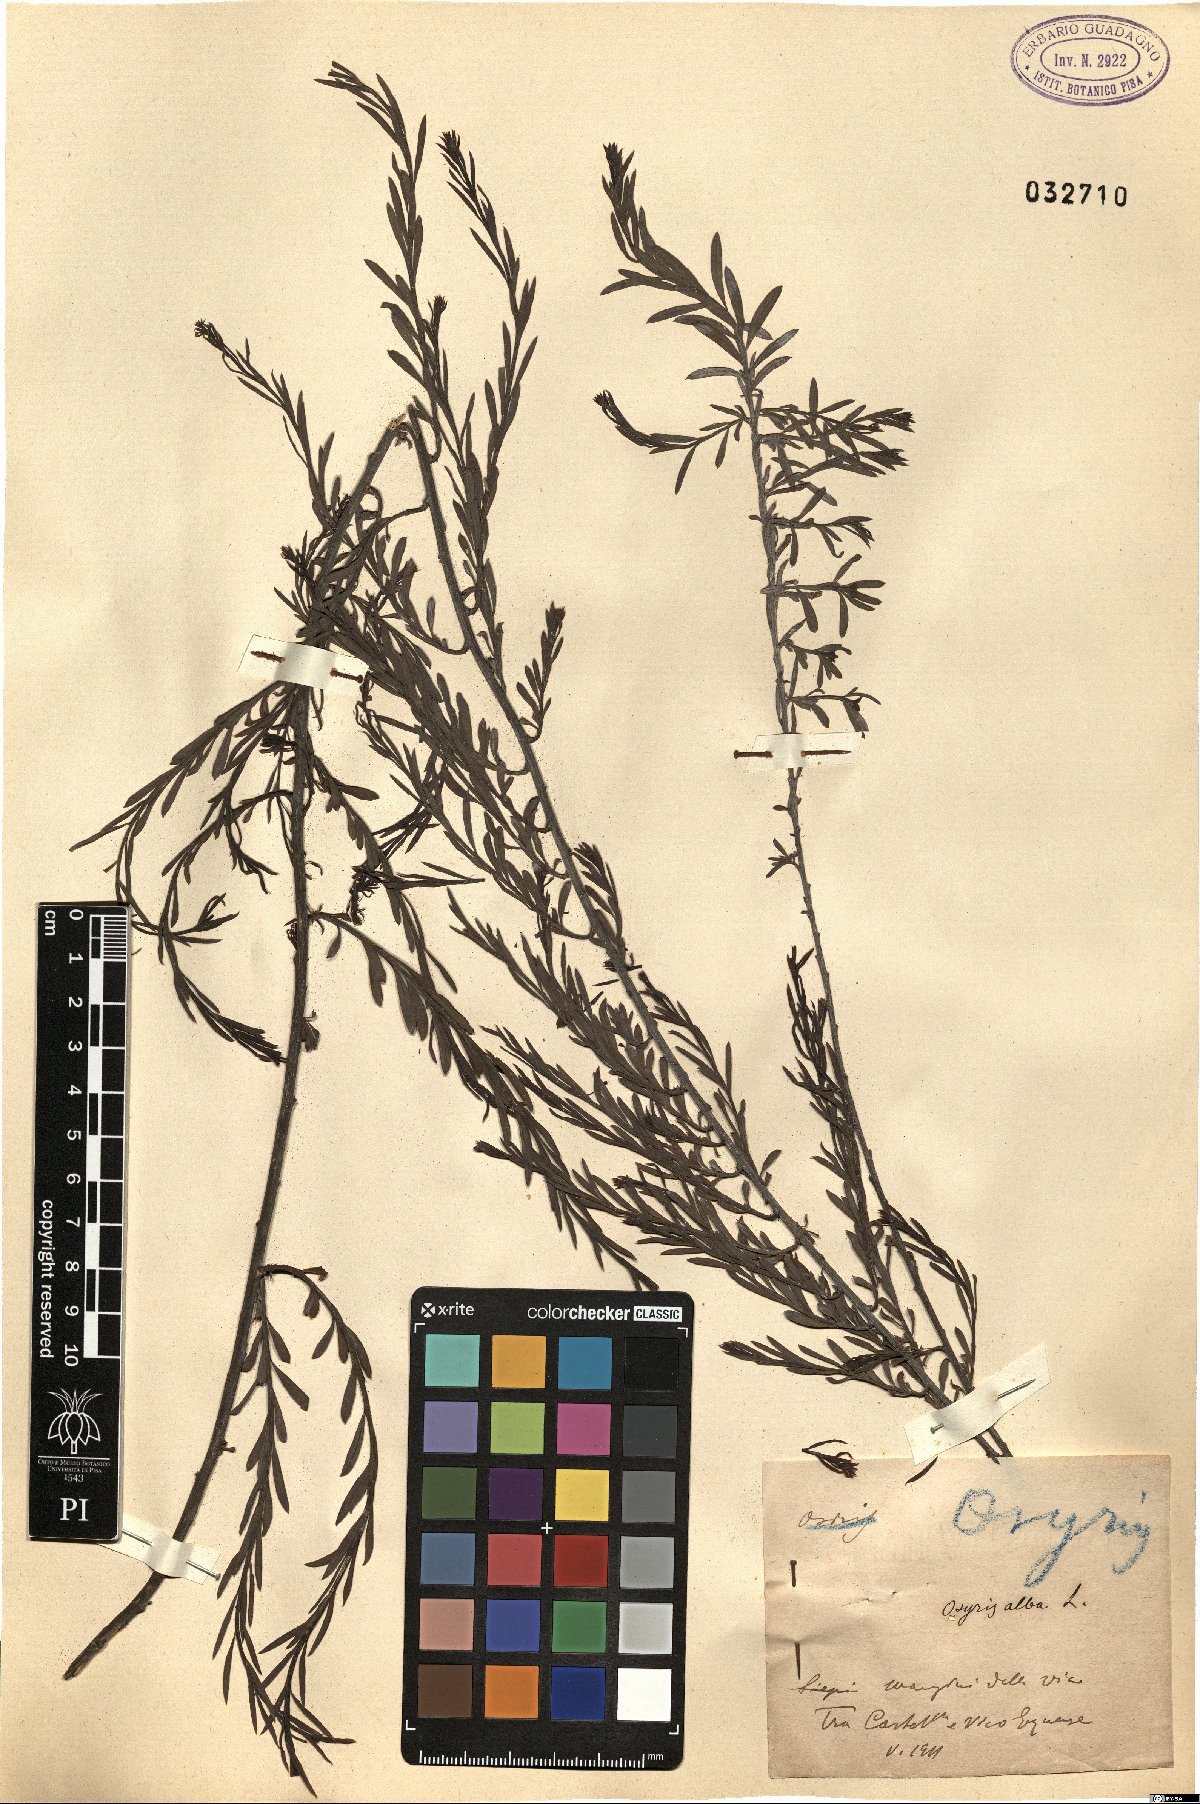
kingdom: Plantae
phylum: Tracheophyta
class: Magnoliopsida
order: Santalales
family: Santalaceae
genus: Osyris
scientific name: Osyris alba
